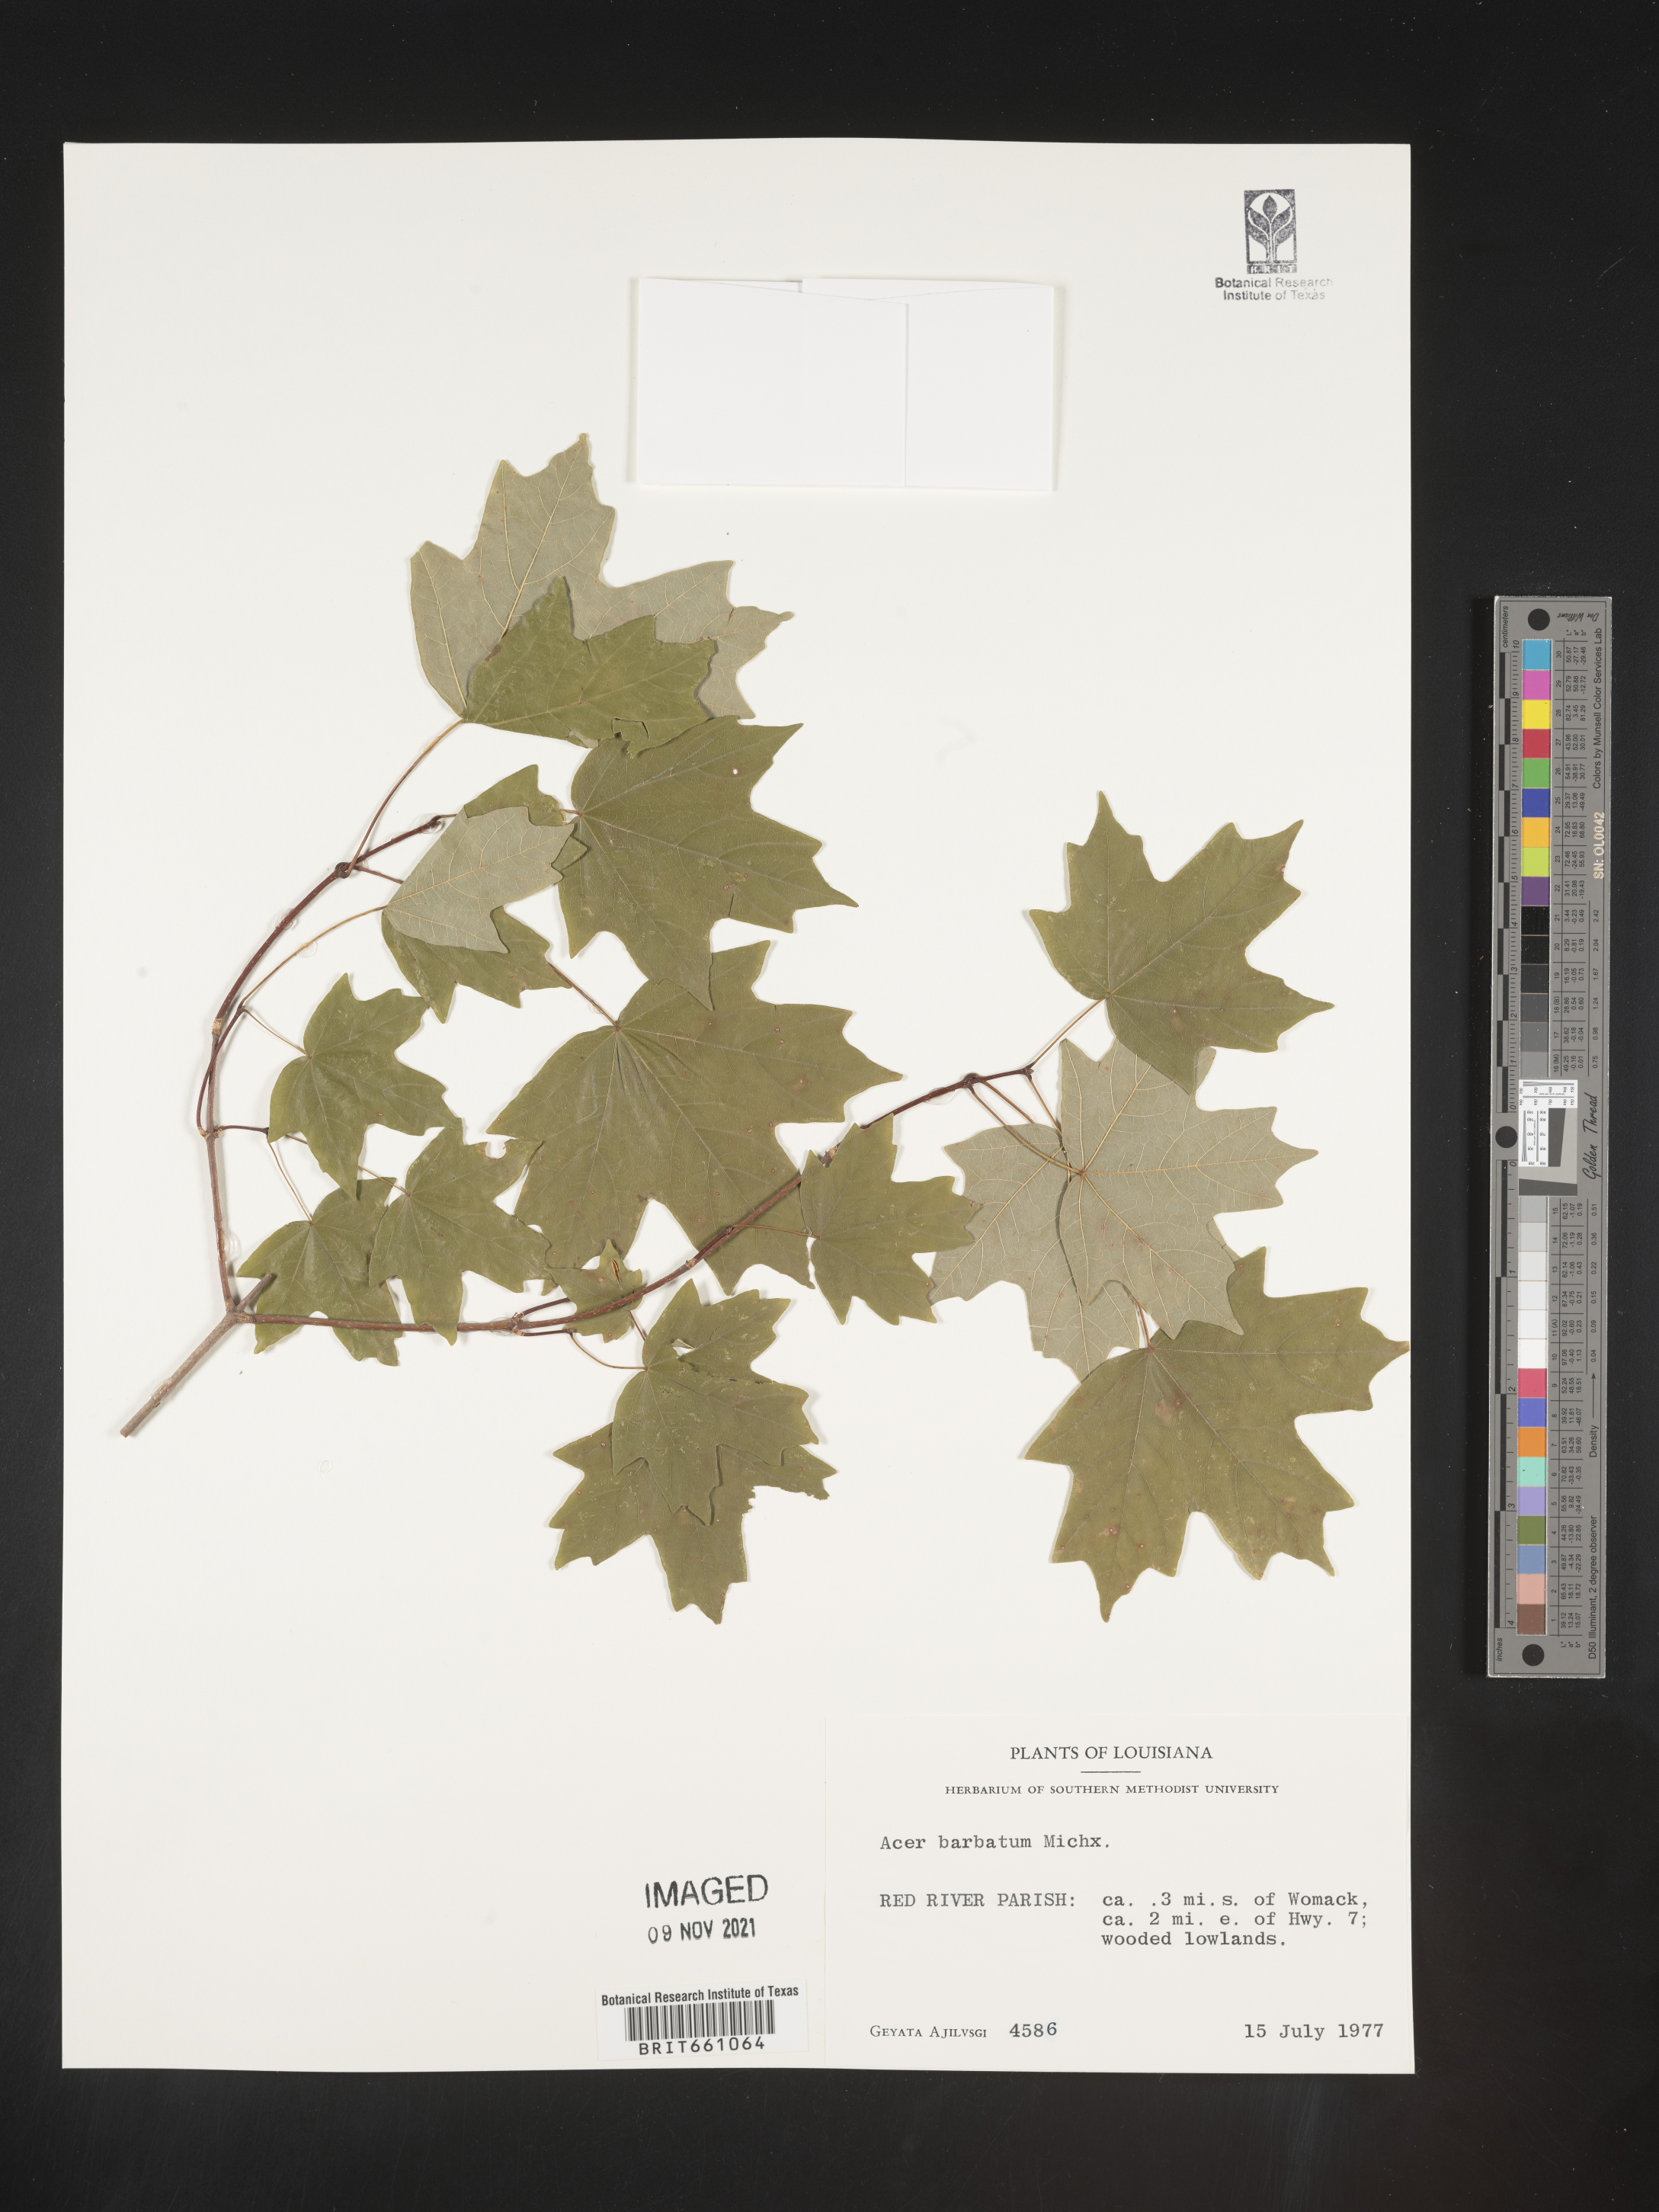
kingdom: Plantae
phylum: Tracheophyta
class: Magnoliopsida
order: Sapindales
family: Sapindaceae
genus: Acer
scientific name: Acer barbatum
